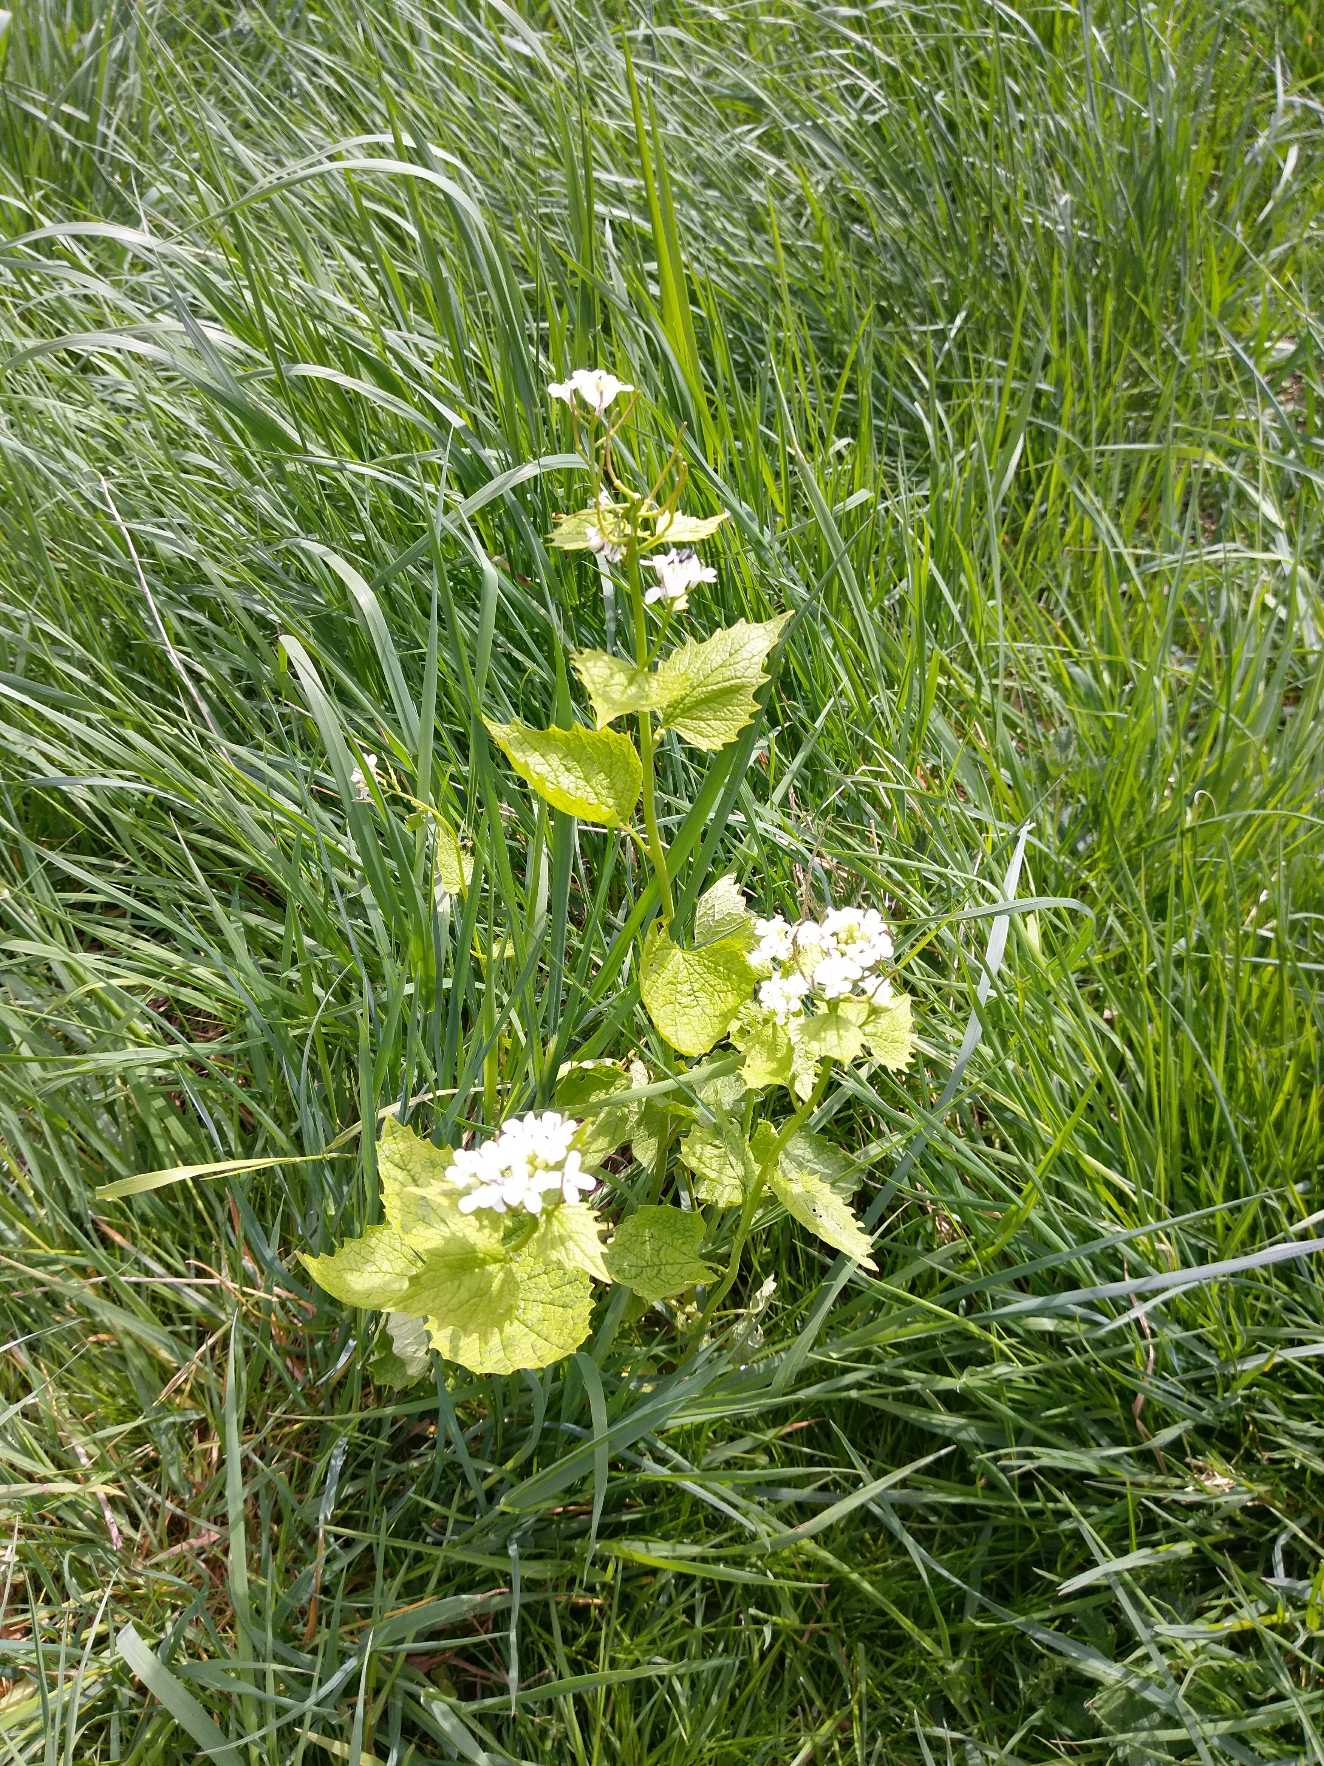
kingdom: Plantae
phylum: Tracheophyta
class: Magnoliopsida
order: Brassicales
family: Brassicaceae
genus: Alliaria
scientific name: Alliaria petiolata
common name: Løgkarse
